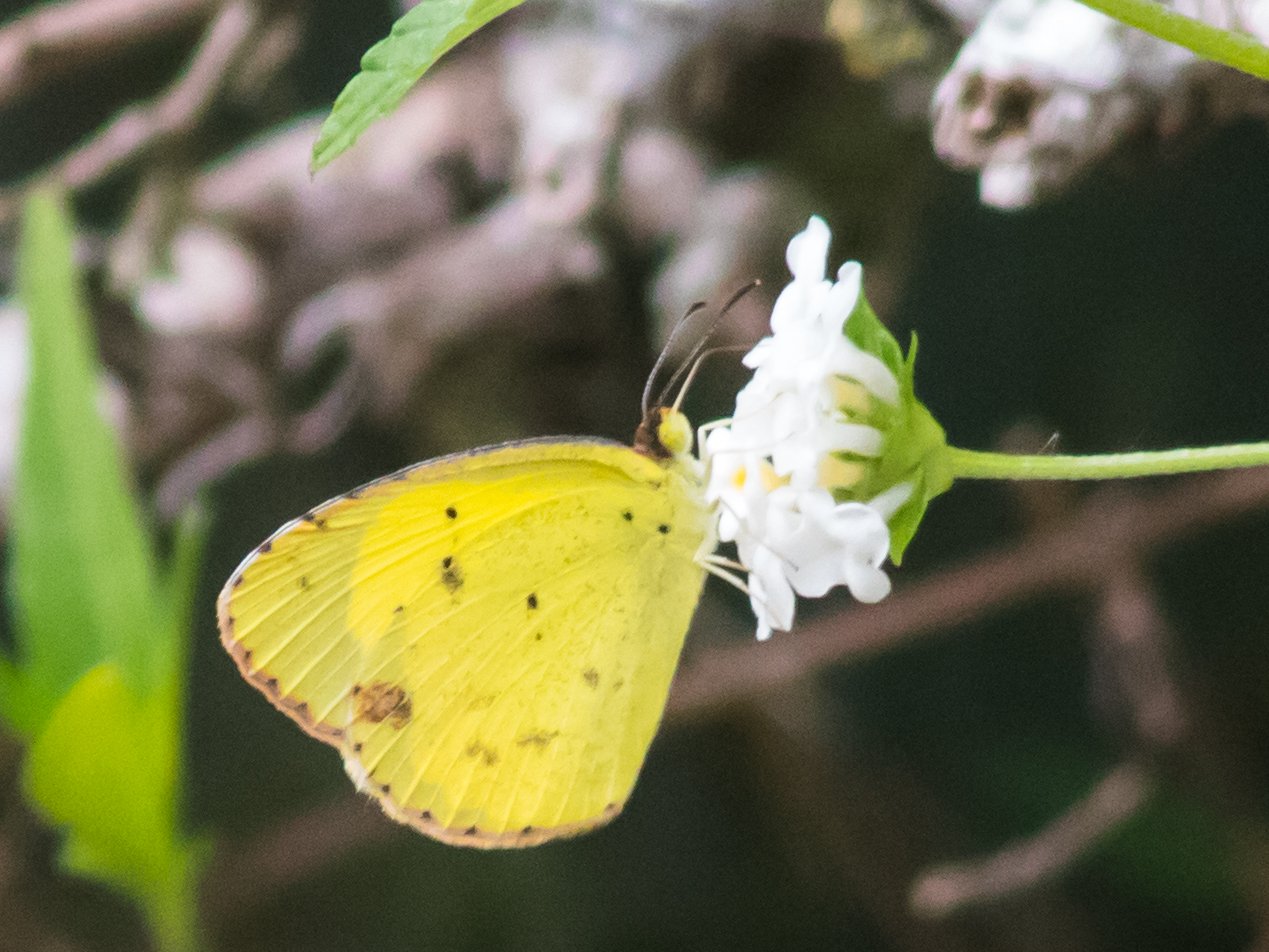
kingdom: Animalia
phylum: Arthropoda
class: Insecta
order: Lepidoptera
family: Pieridae
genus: Pyrisitia
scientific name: Pyrisitia lisa
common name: Little Yellow
